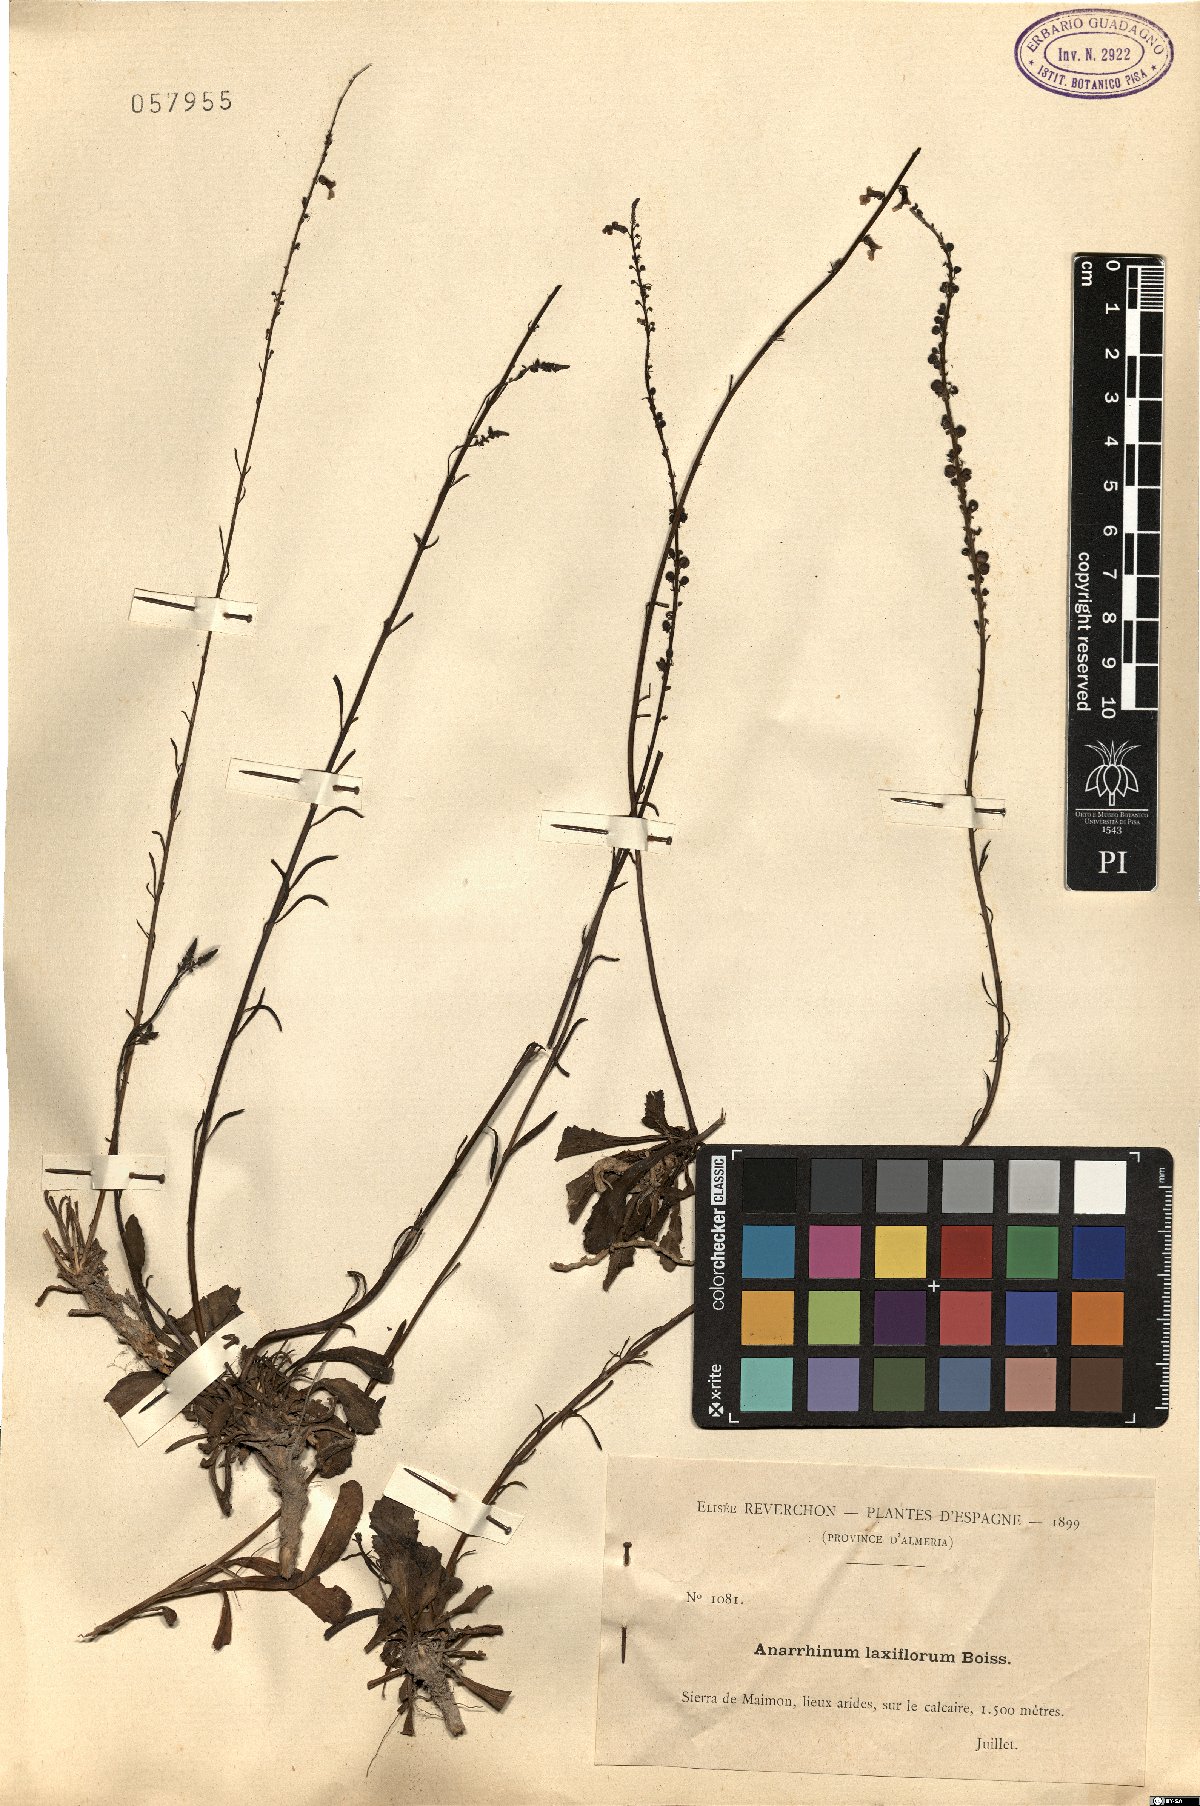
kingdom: Plantae
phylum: Tracheophyta
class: Magnoliopsida
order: Lamiales
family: Plantaginaceae
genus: Anarrhinum
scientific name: Anarrhinum laxiflorum
